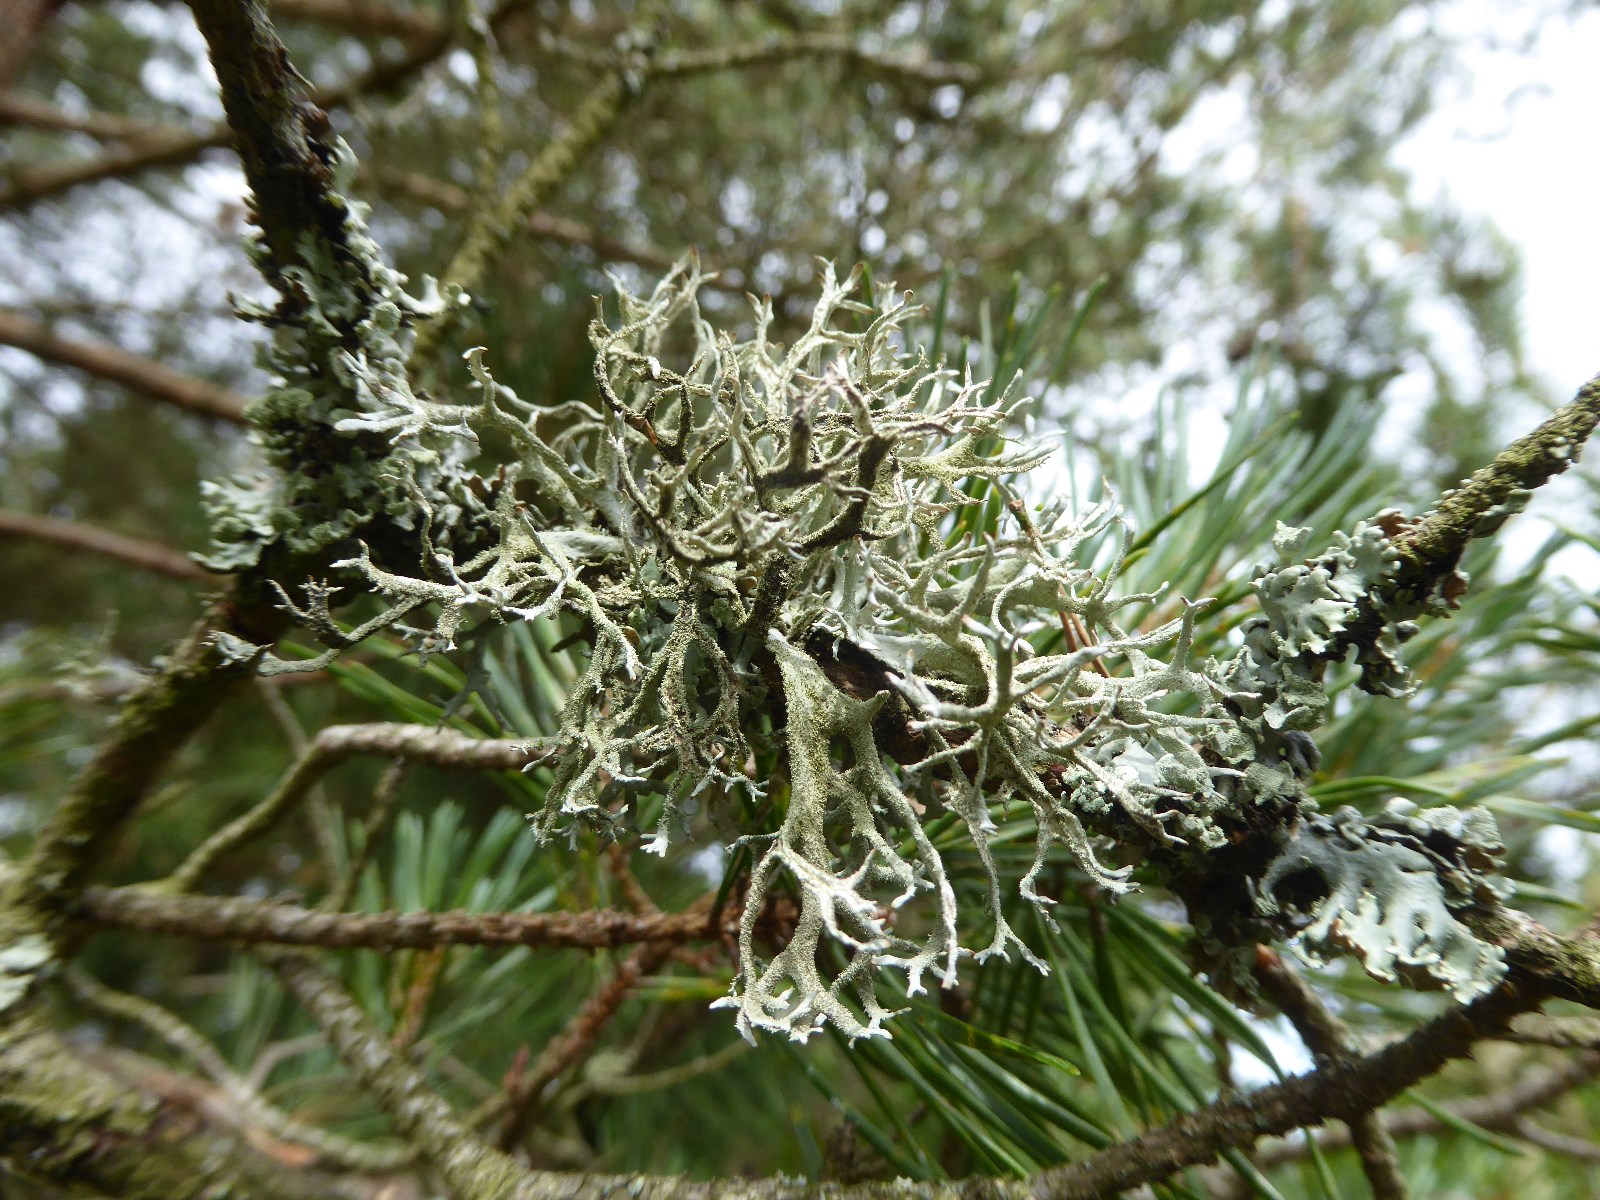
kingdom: Fungi
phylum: Ascomycota
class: Lecanoromycetes
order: Lecanorales
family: Parmeliaceae
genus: Pseudevernia
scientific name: Pseudevernia furfuracea
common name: grå fyrrelav
